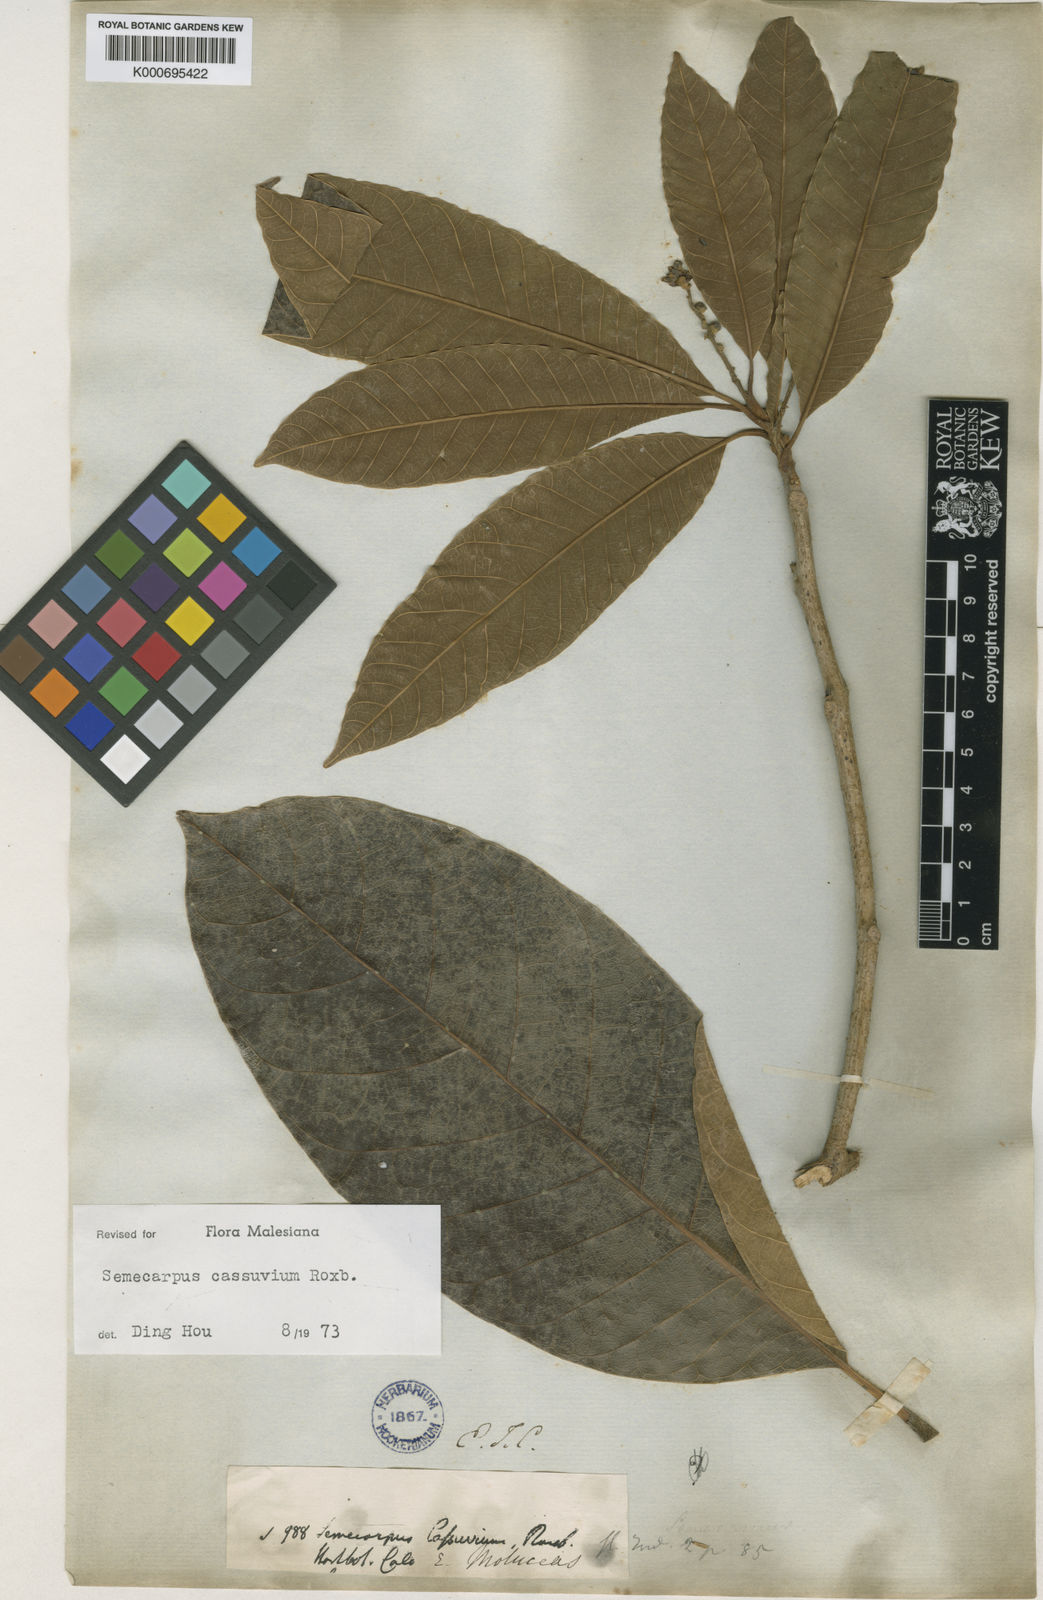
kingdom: Plantae
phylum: Tracheophyta
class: Magnoliopsida
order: Sapindales
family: Anacardiaceae
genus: Semecarpus
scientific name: Semecarpus cassuvium
